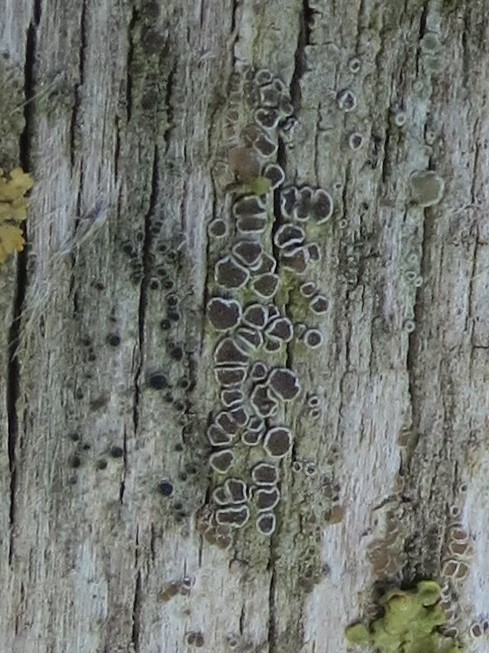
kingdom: Fungi
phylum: Ascomycota
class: Lecanoromycetes
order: Lecanorales
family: Lecanoraceae
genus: Lecanora
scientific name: Lecanora
